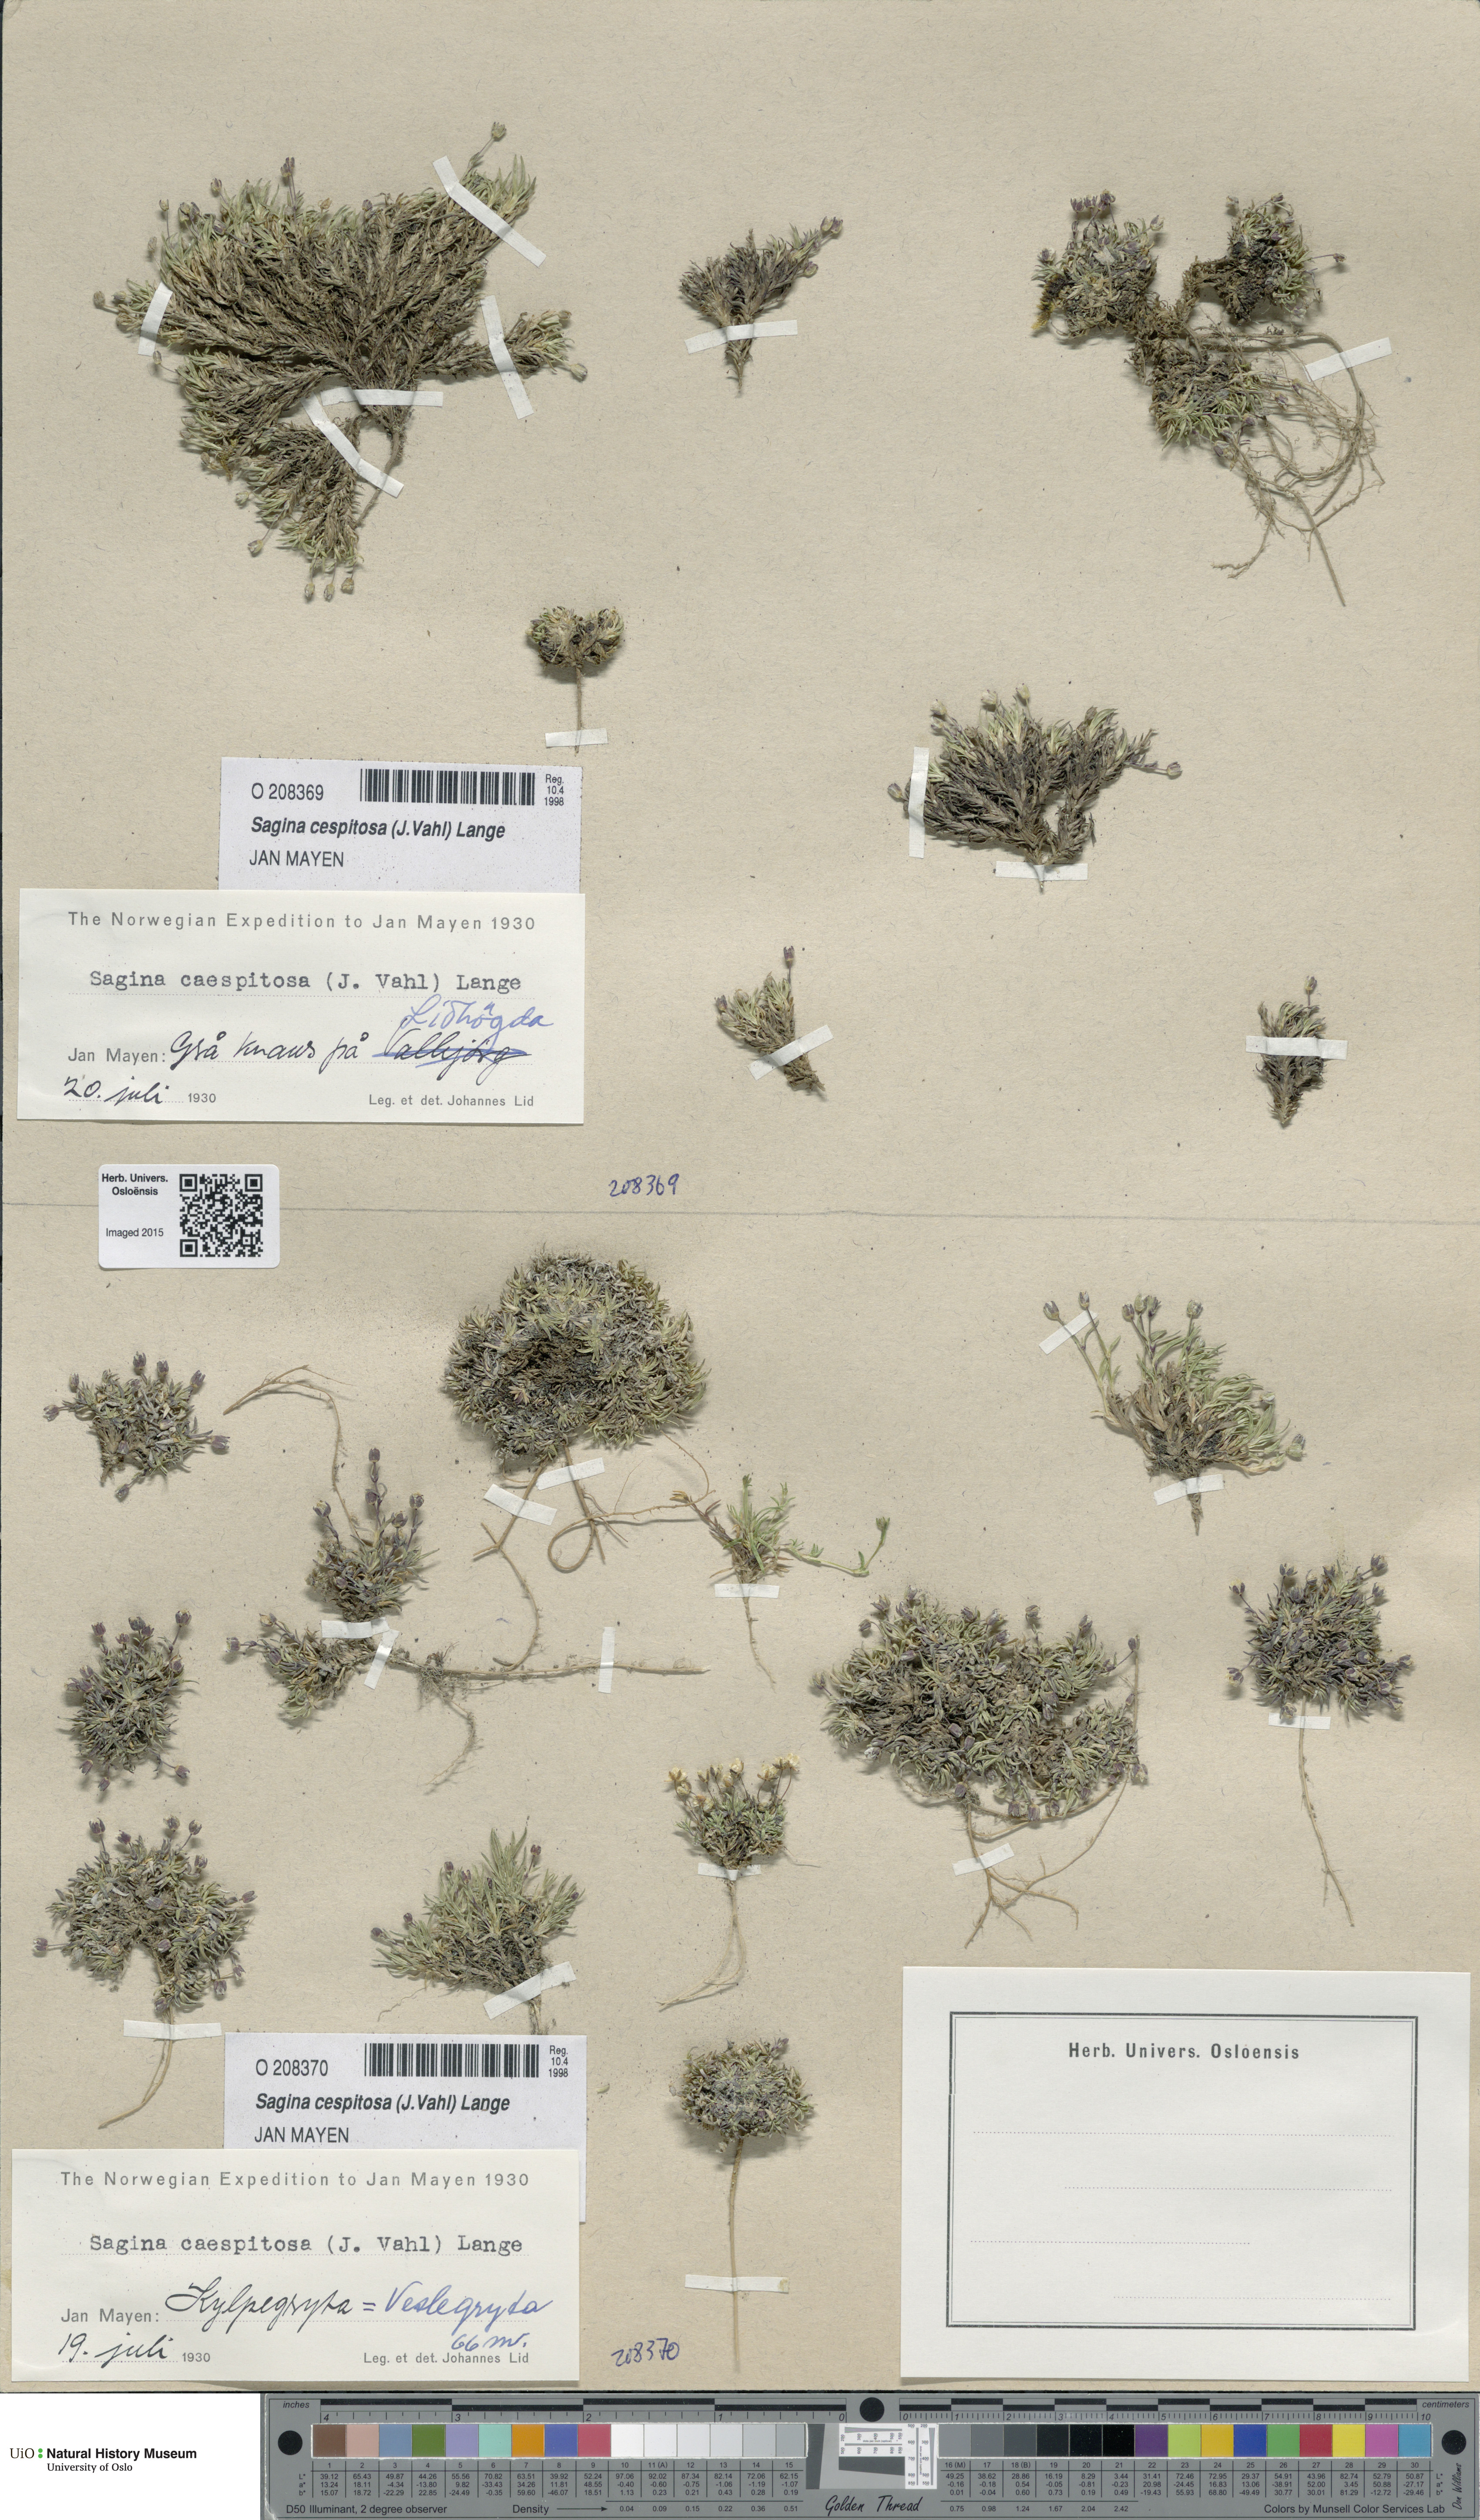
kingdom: Plantae
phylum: Tracheophyta
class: Magnoliopsida
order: Caryophyllales
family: Caryophyllaceae
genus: Sagina
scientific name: Sagina caespitosa
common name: Tufted pearlwort
